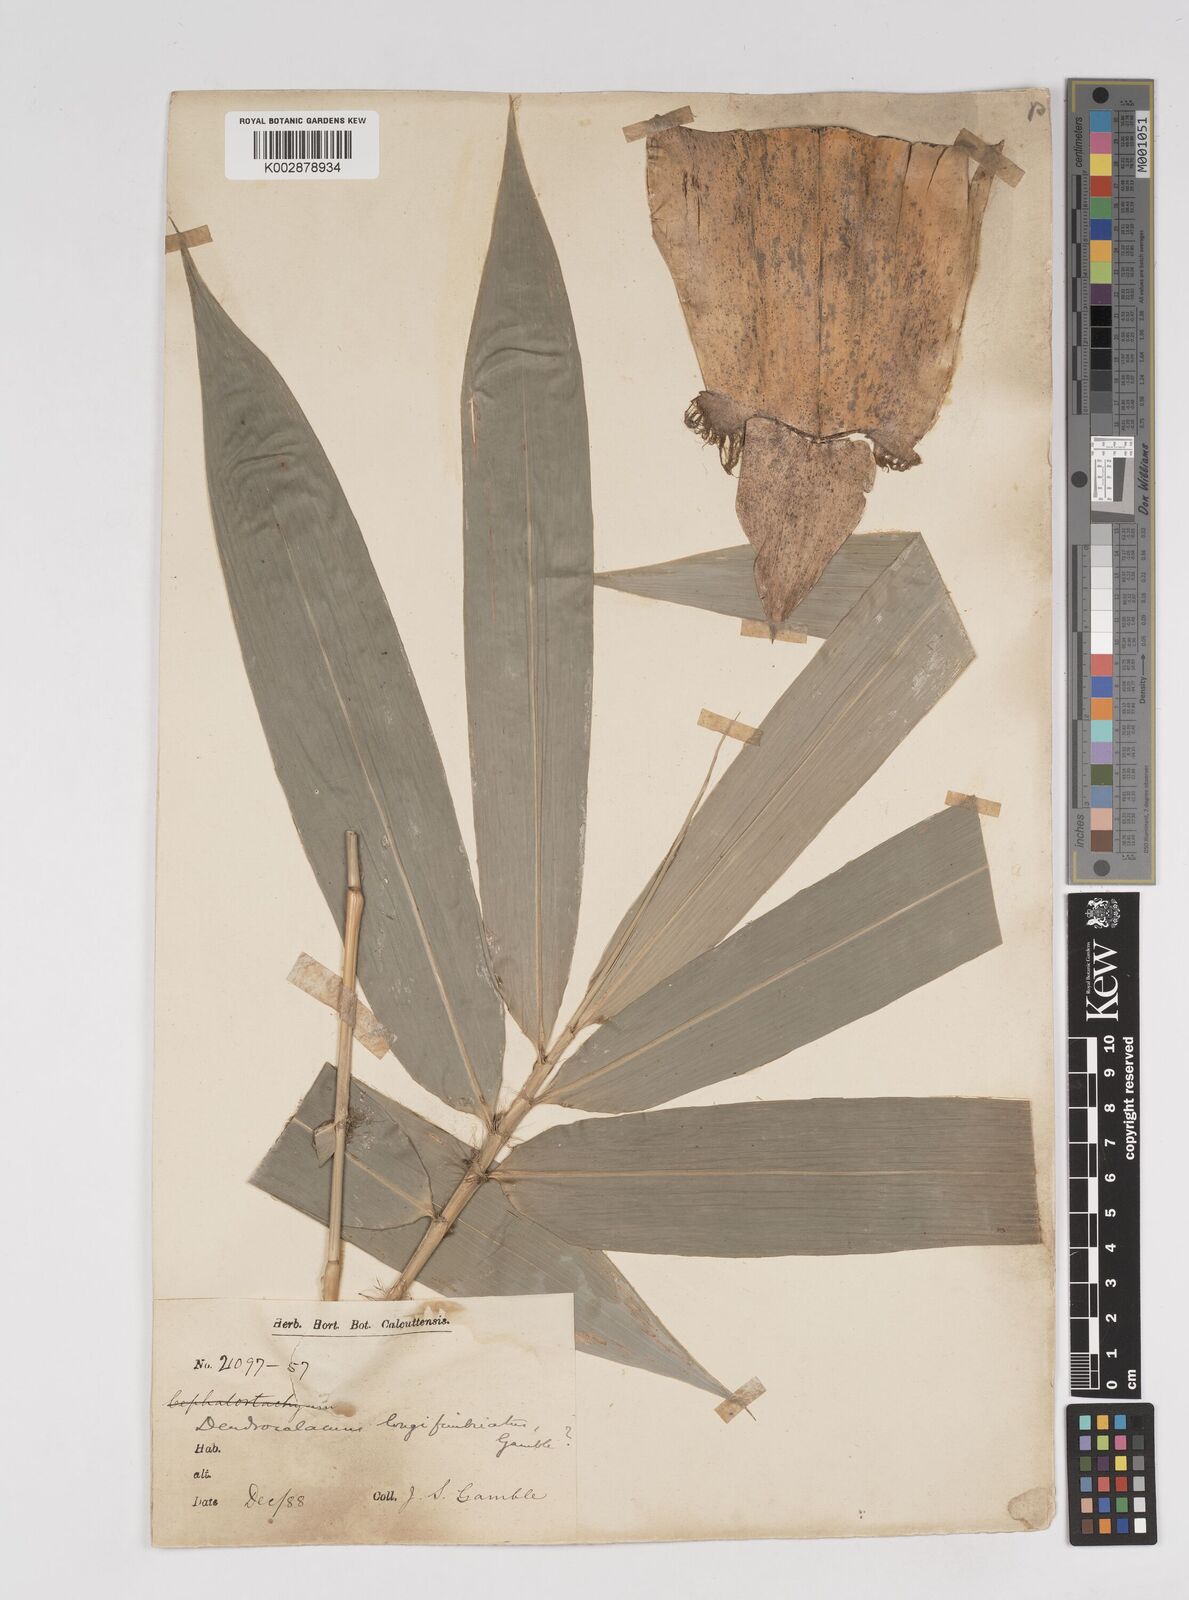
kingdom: Plantae
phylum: Tracheophyta
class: Liliopsida
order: Poales
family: Poaceae
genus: Dendrocalamus
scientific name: Dendrocalamus membranaceus
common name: White bamboo
